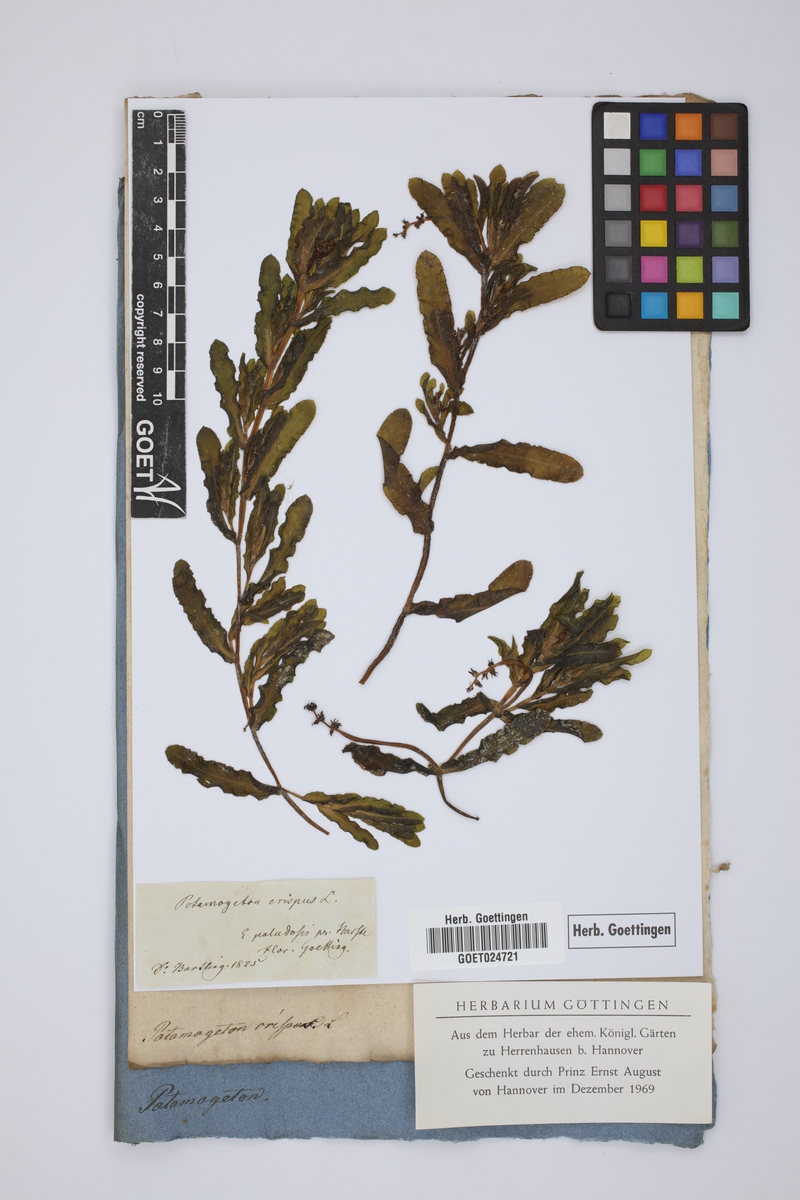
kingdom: Plantae
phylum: Tracheophyta
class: Liliopsida
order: Alismatales
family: Potamogetonaceae
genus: Potamogeton
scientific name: Potamogeton crispus
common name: Curled pondweed
